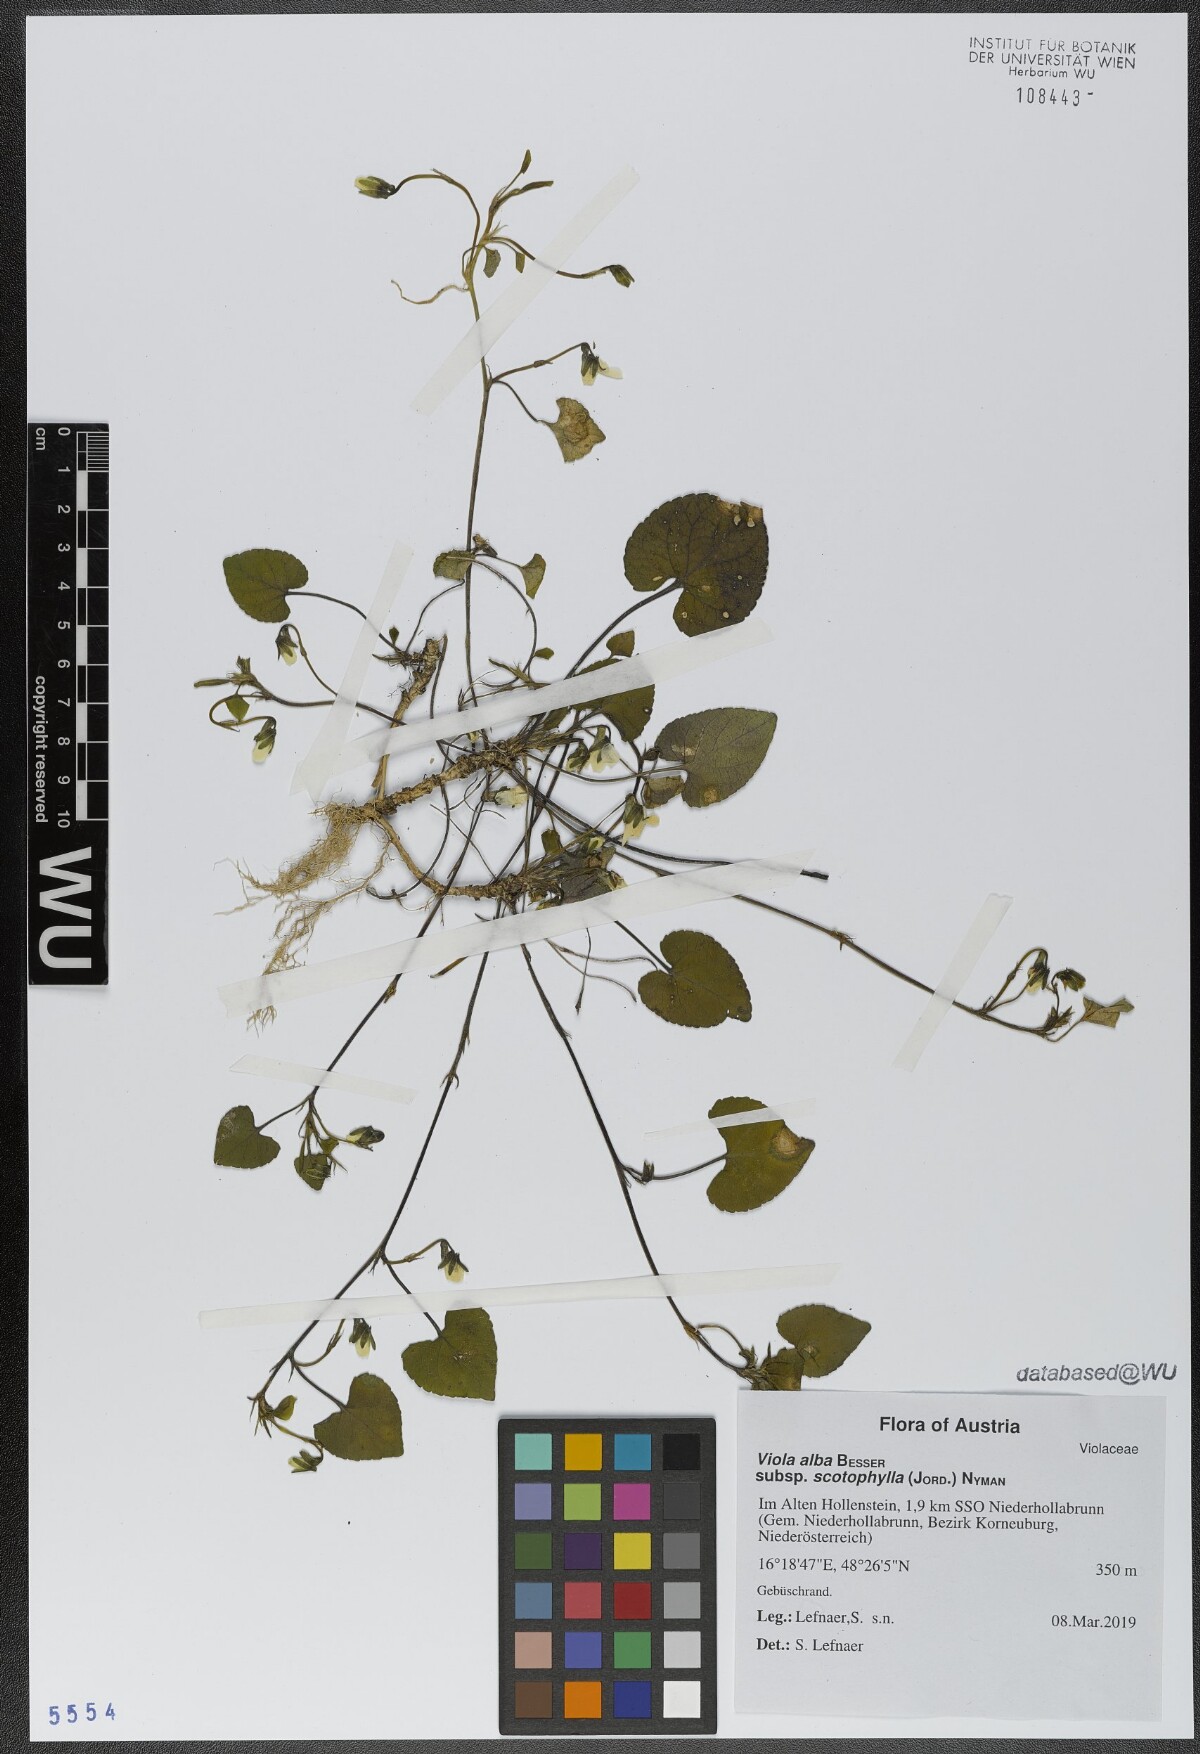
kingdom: Plantae
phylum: Tracheophyta
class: Magnoliopsida
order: Malpighiales
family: Violaceae
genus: Viola
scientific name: Viola alba
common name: White violet
